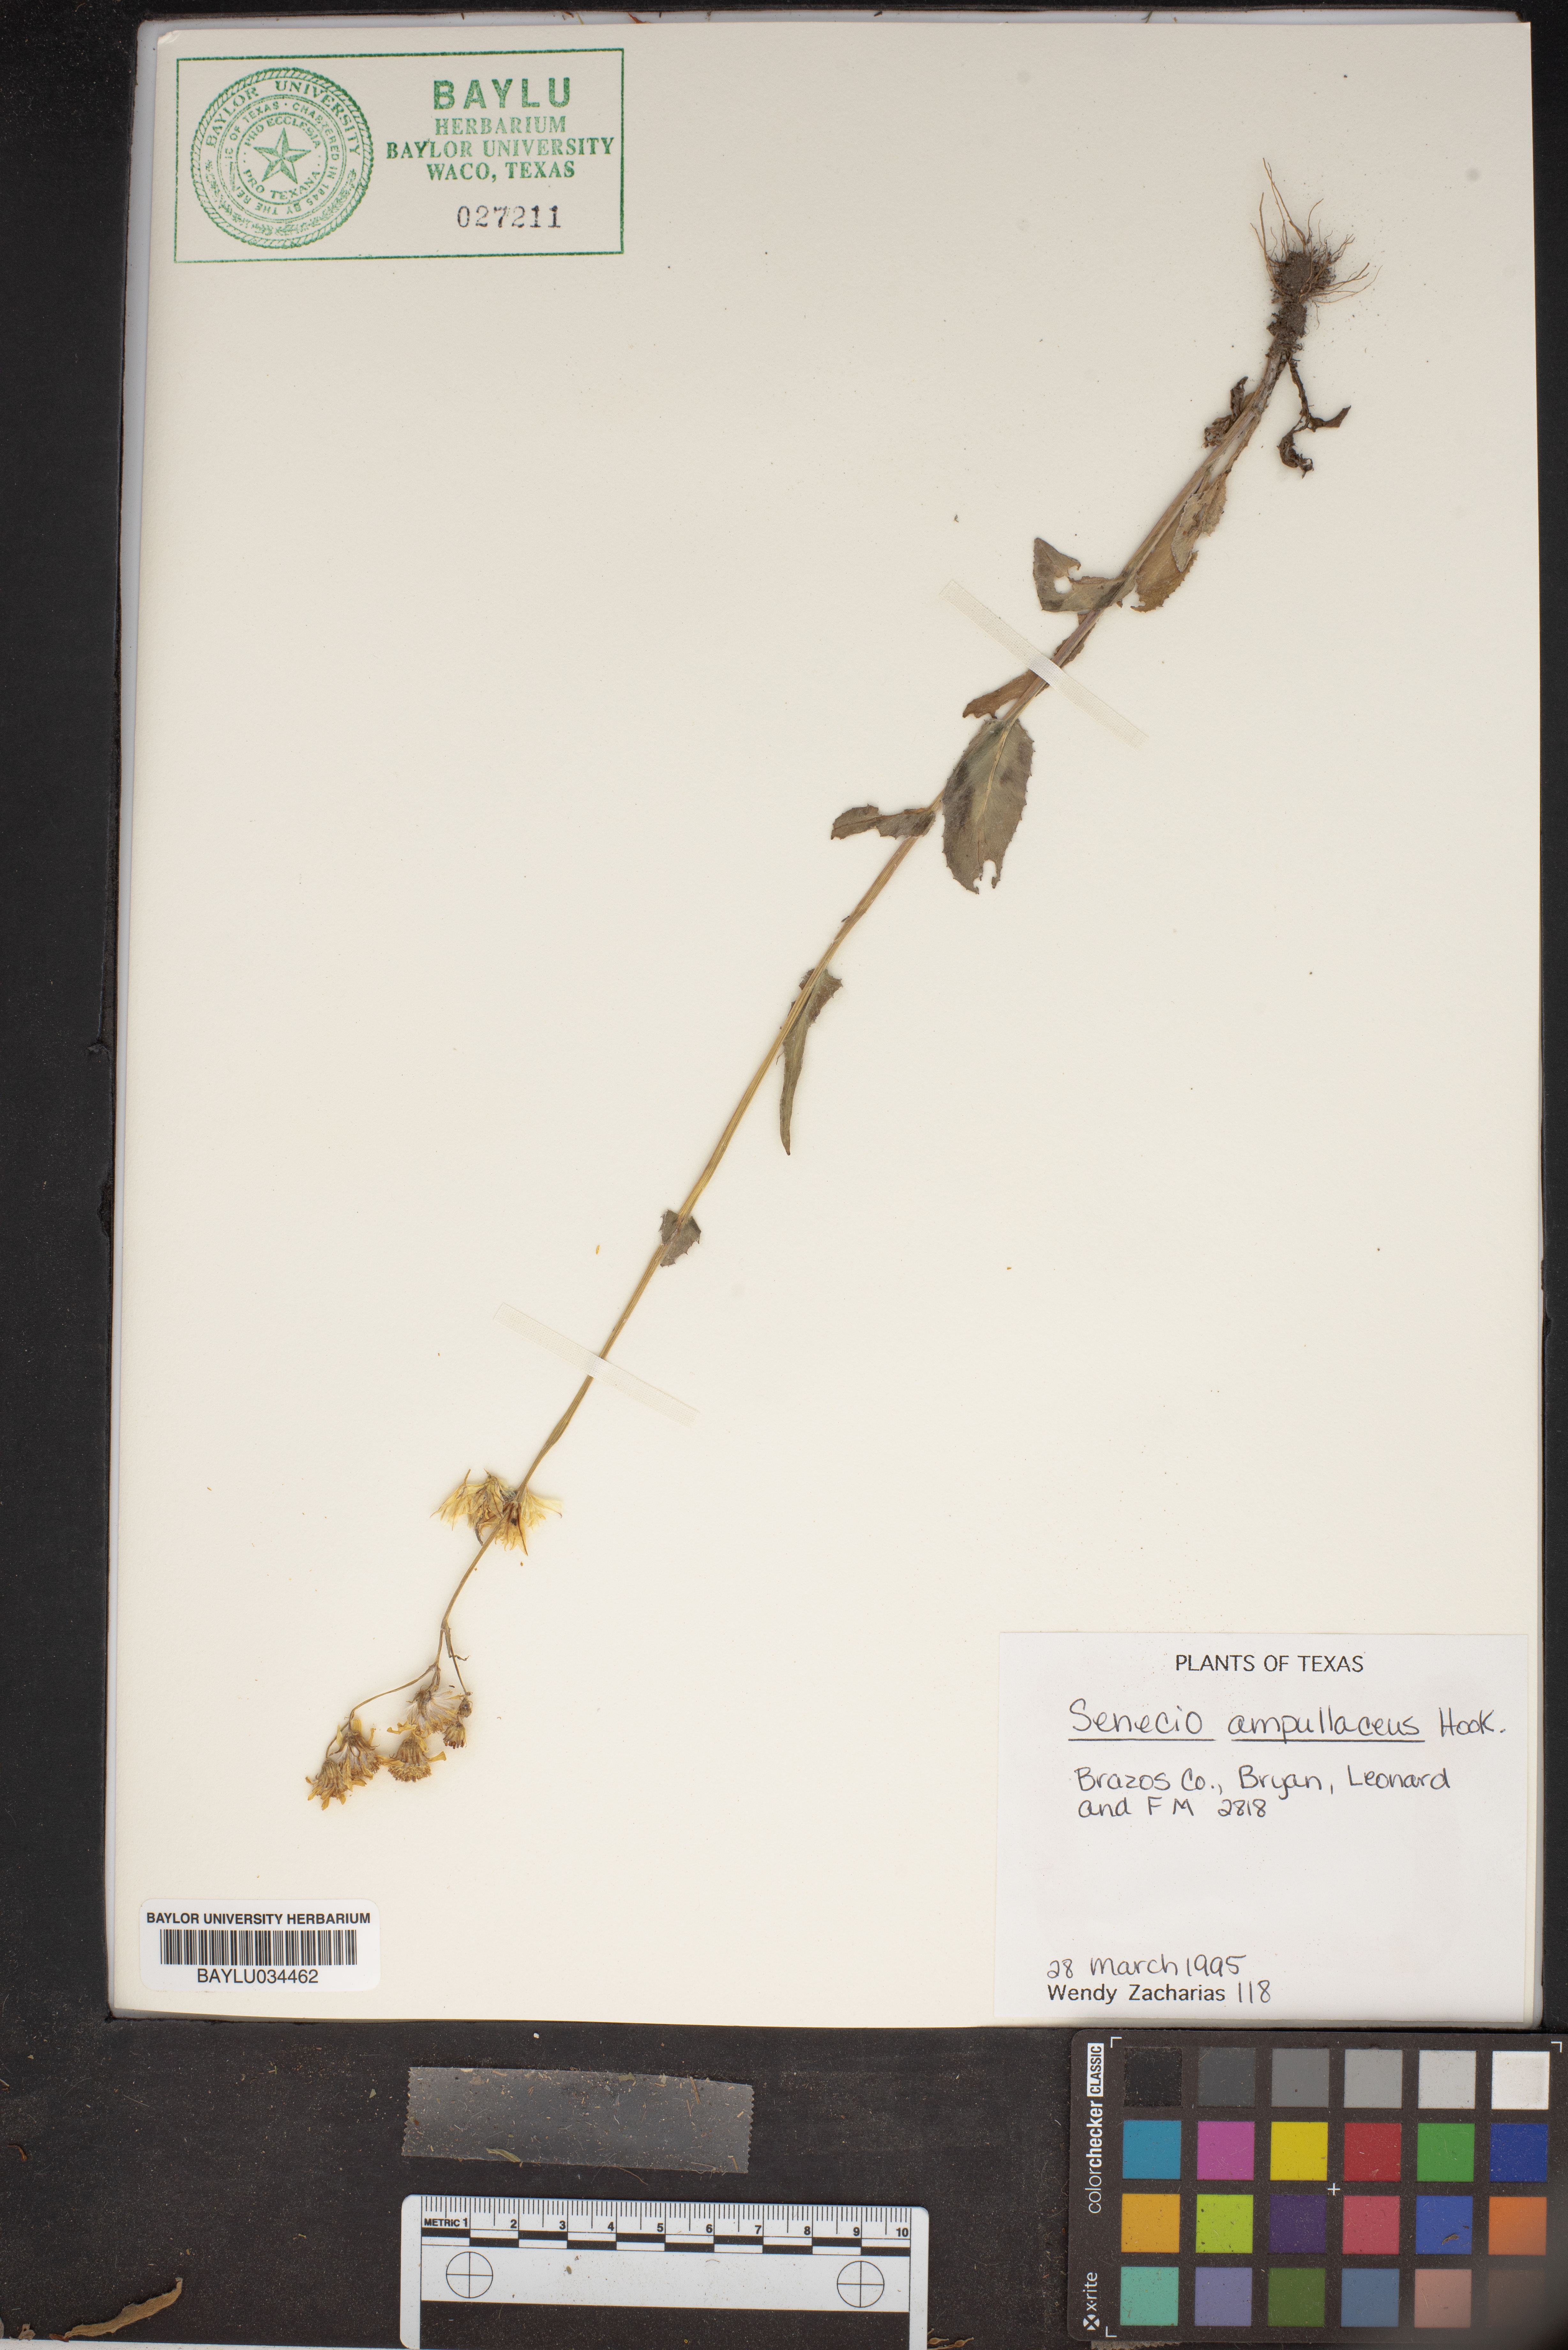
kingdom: Plantae
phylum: Tracheophyta
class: Magnoliopsida
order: Asterales
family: Asteraceae
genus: Senecio
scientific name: Senecio ampullaceus
